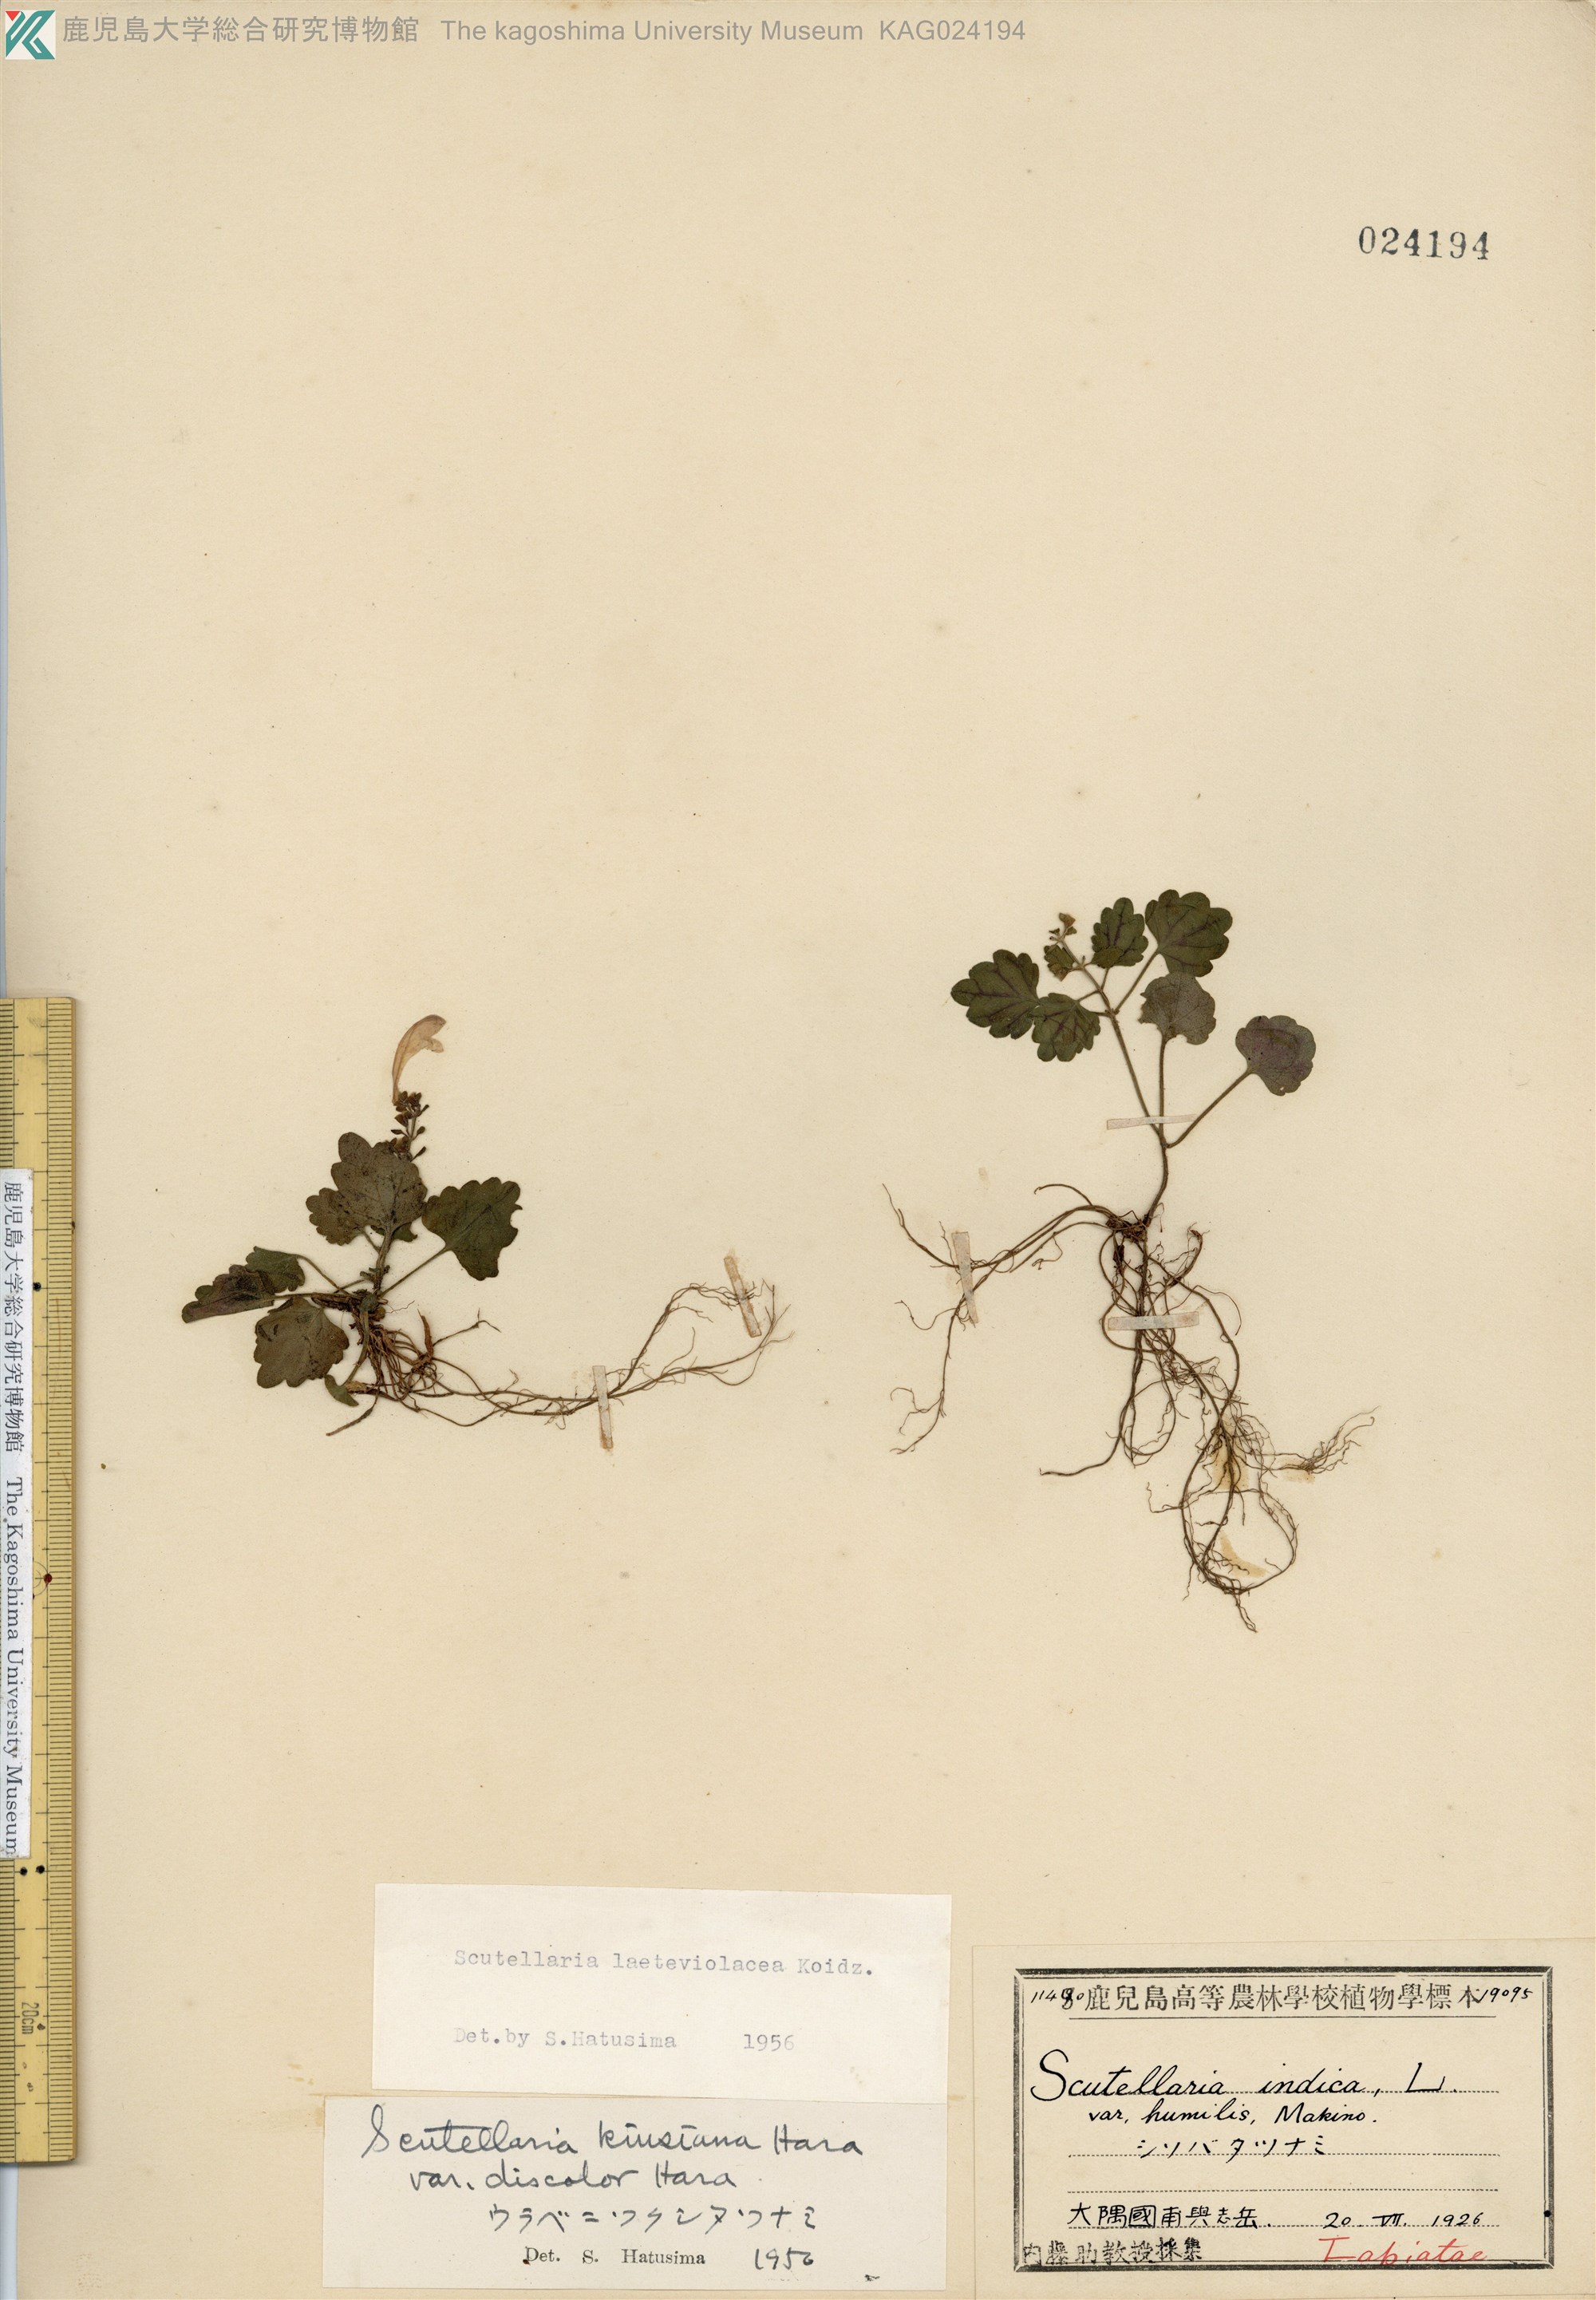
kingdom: Plantae
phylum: Tracheophyta
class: Magnoliopsida
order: Lamiales
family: Lamiaceae
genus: Scutellaria
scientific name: Scutellaria laeteviolacea
